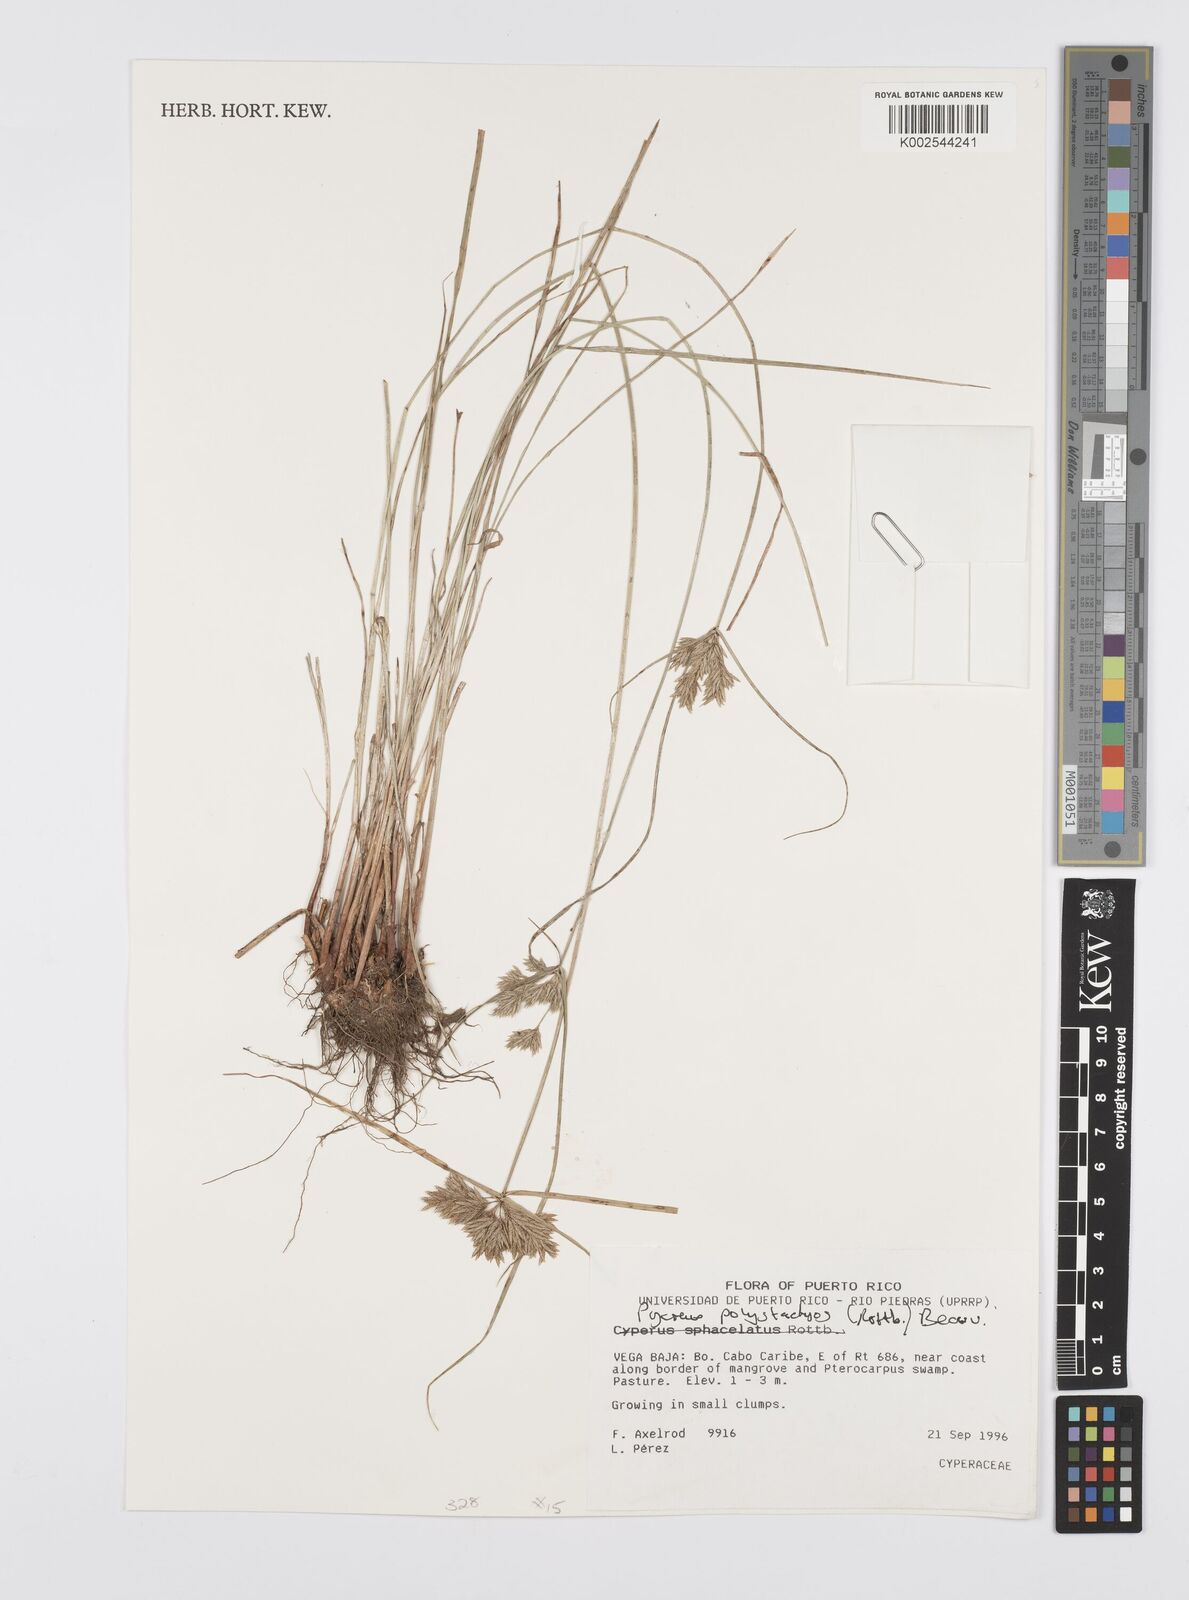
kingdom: Plantae
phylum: Tracheophyta
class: Liliopsida
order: Poales
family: Cyperaceae
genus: Cyperus
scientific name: Cyperus polystachyos
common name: Bunchy flat sedge
